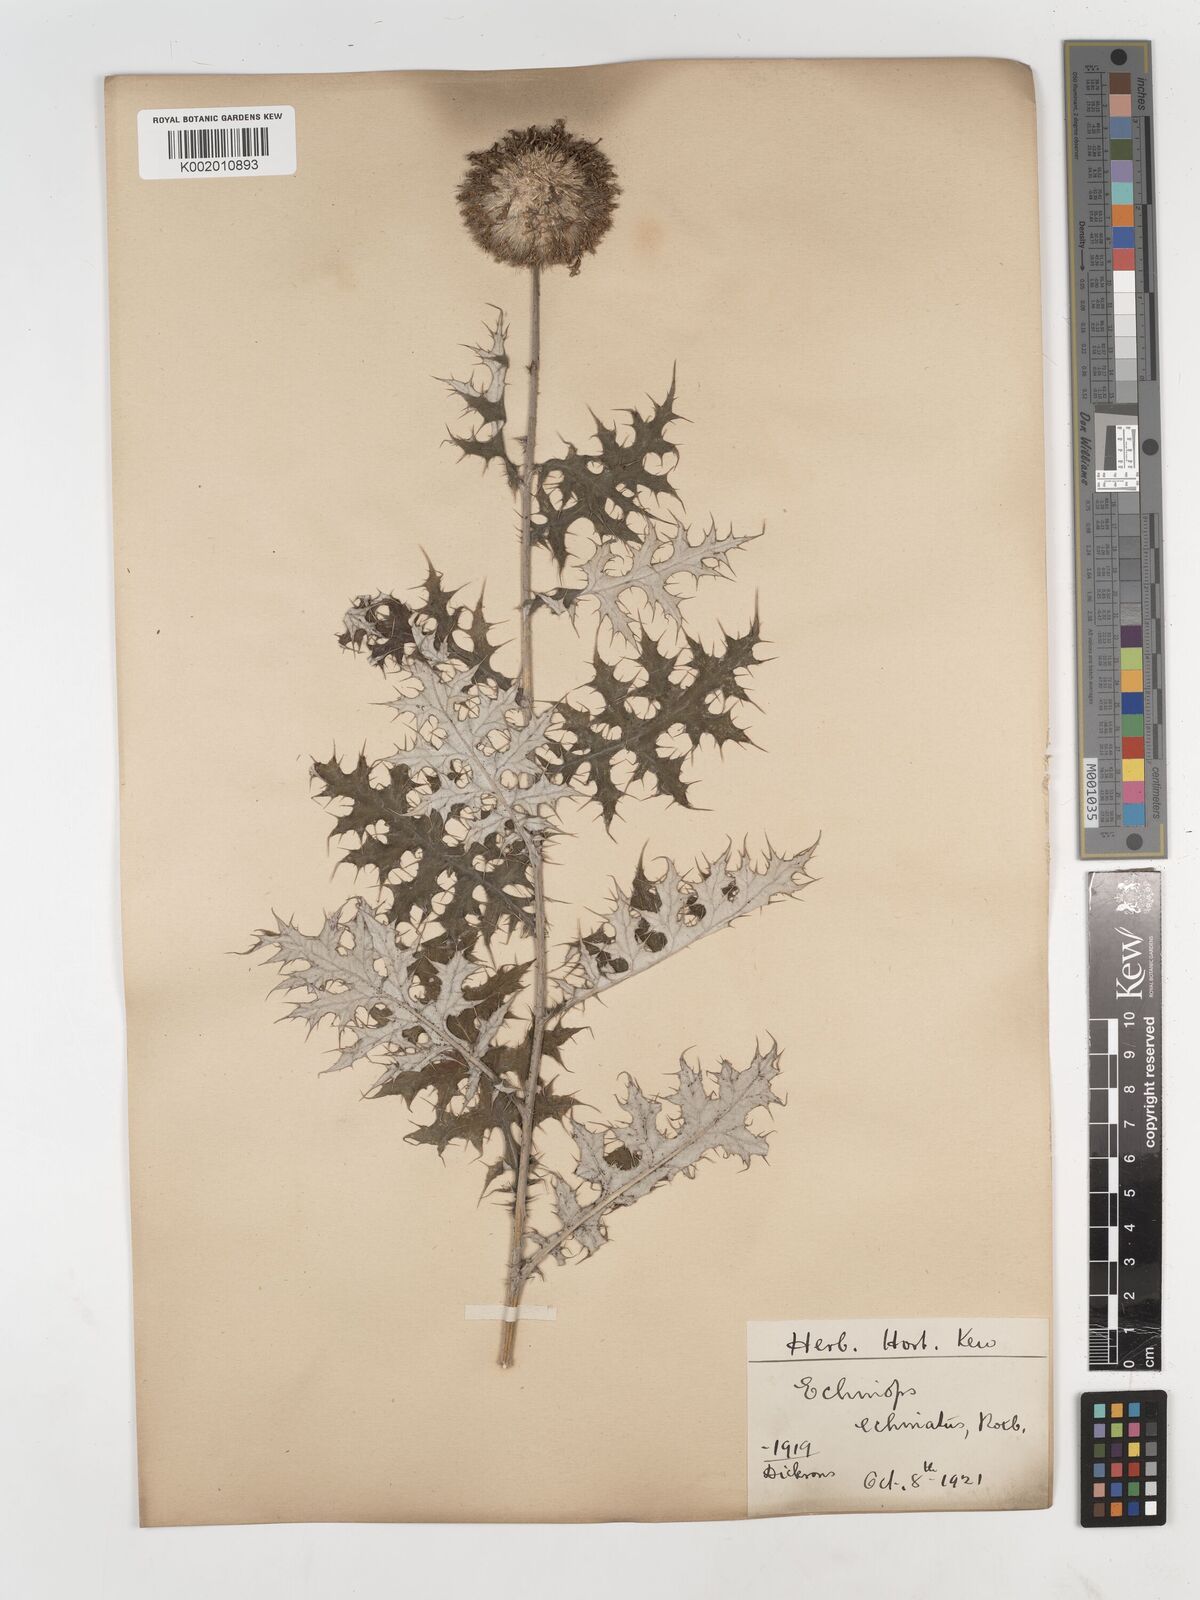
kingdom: Plantae
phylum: Tracheophyta
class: Magnoliopsida
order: Asterales
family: Asteraceae
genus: Echinops
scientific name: Echinops echinatus
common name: Indian globe thistle
